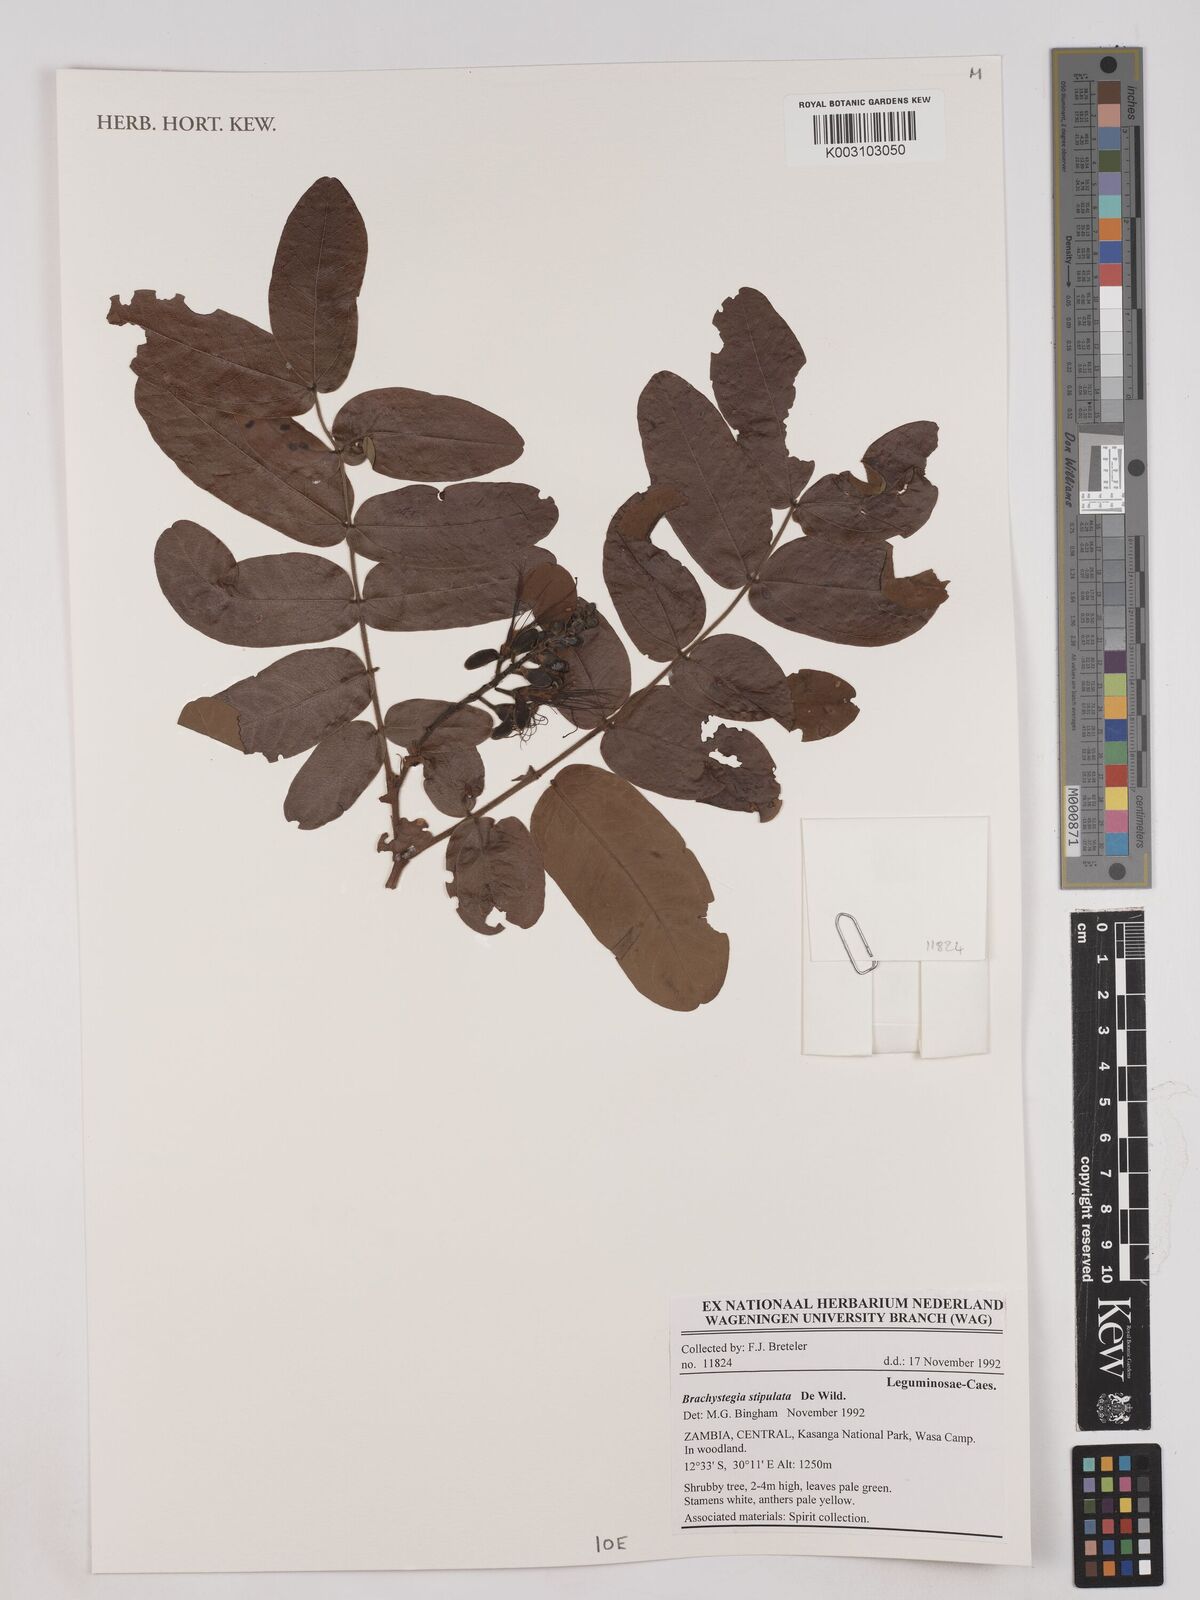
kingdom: Plantae
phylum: Tracheophyta
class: Magnoliopsida
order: Fabales
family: Fabaceae
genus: Brachystegia
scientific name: Brachystegia stipulata
